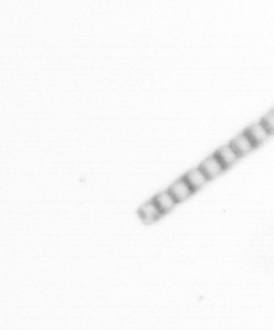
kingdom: Chromista
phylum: Ochrophyta
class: Bacillariophyceae
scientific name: Bacillariophyceae
